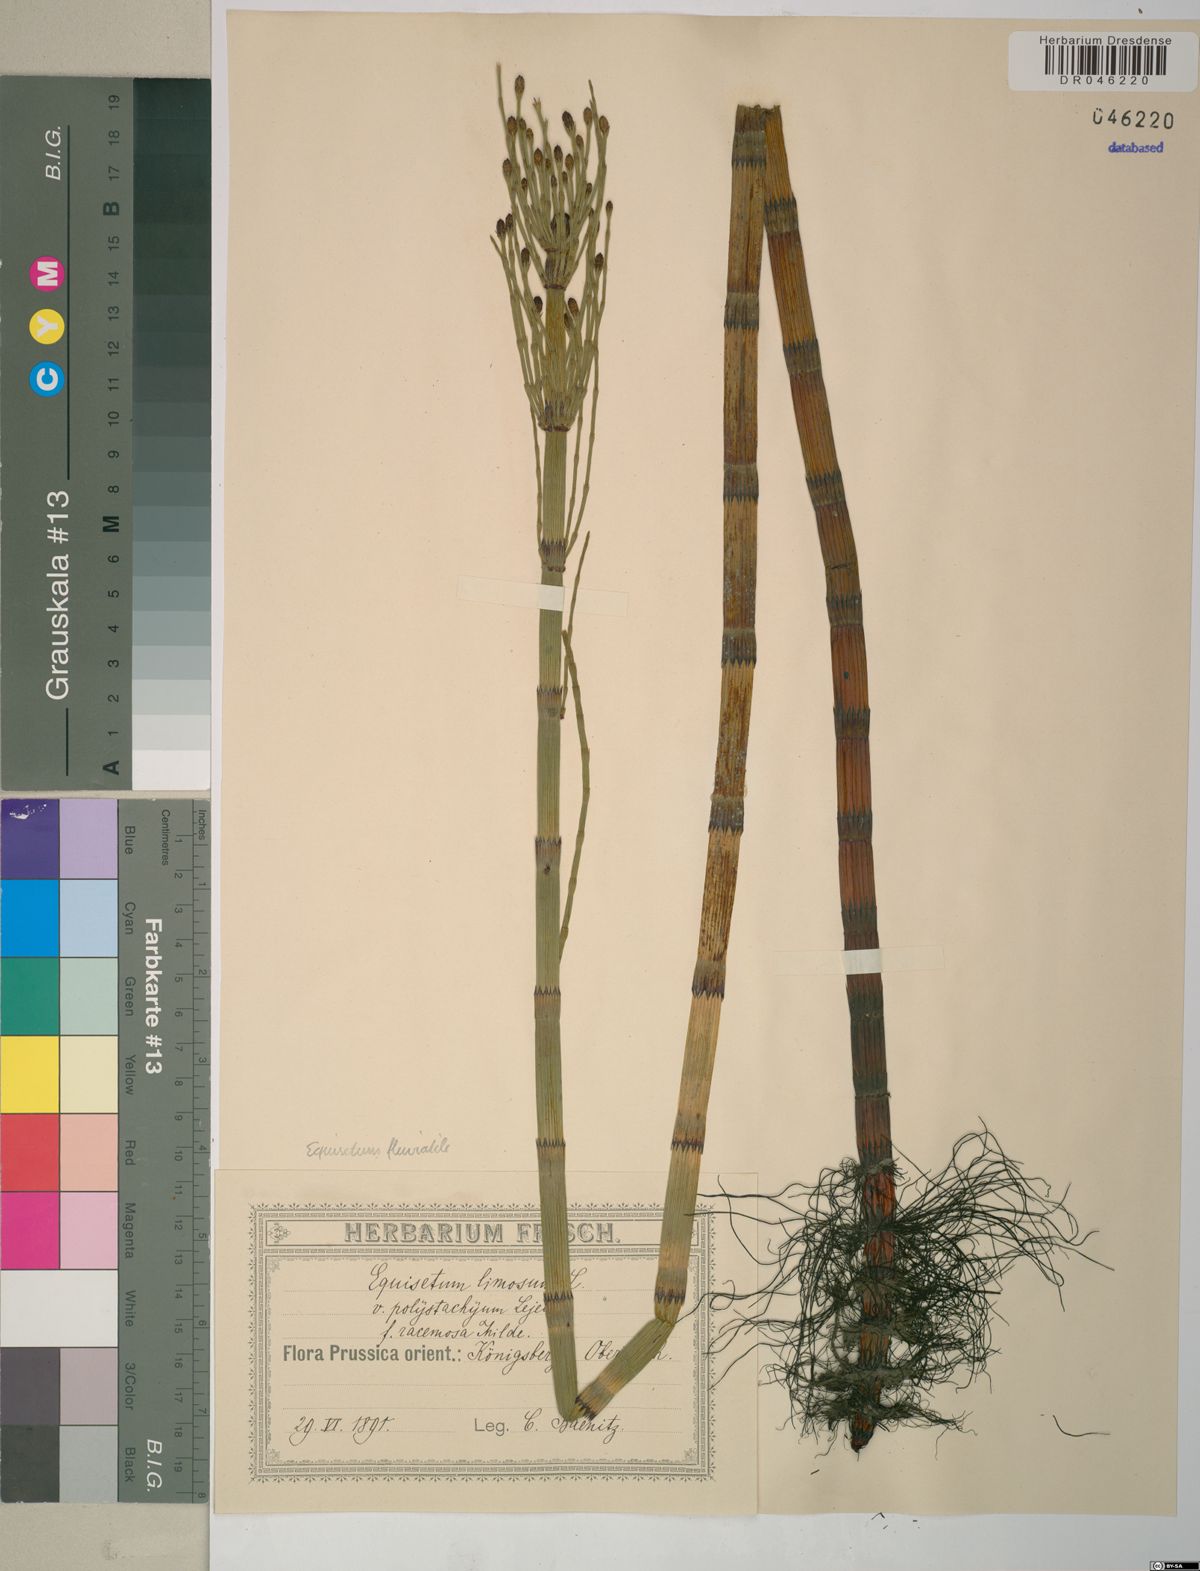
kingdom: Plantae
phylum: Tracheophyta
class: Polypodiopsida
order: Equisetales
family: Equisetaceae
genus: Equisetum
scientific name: Equisetum fluviatile
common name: Water horsetail
